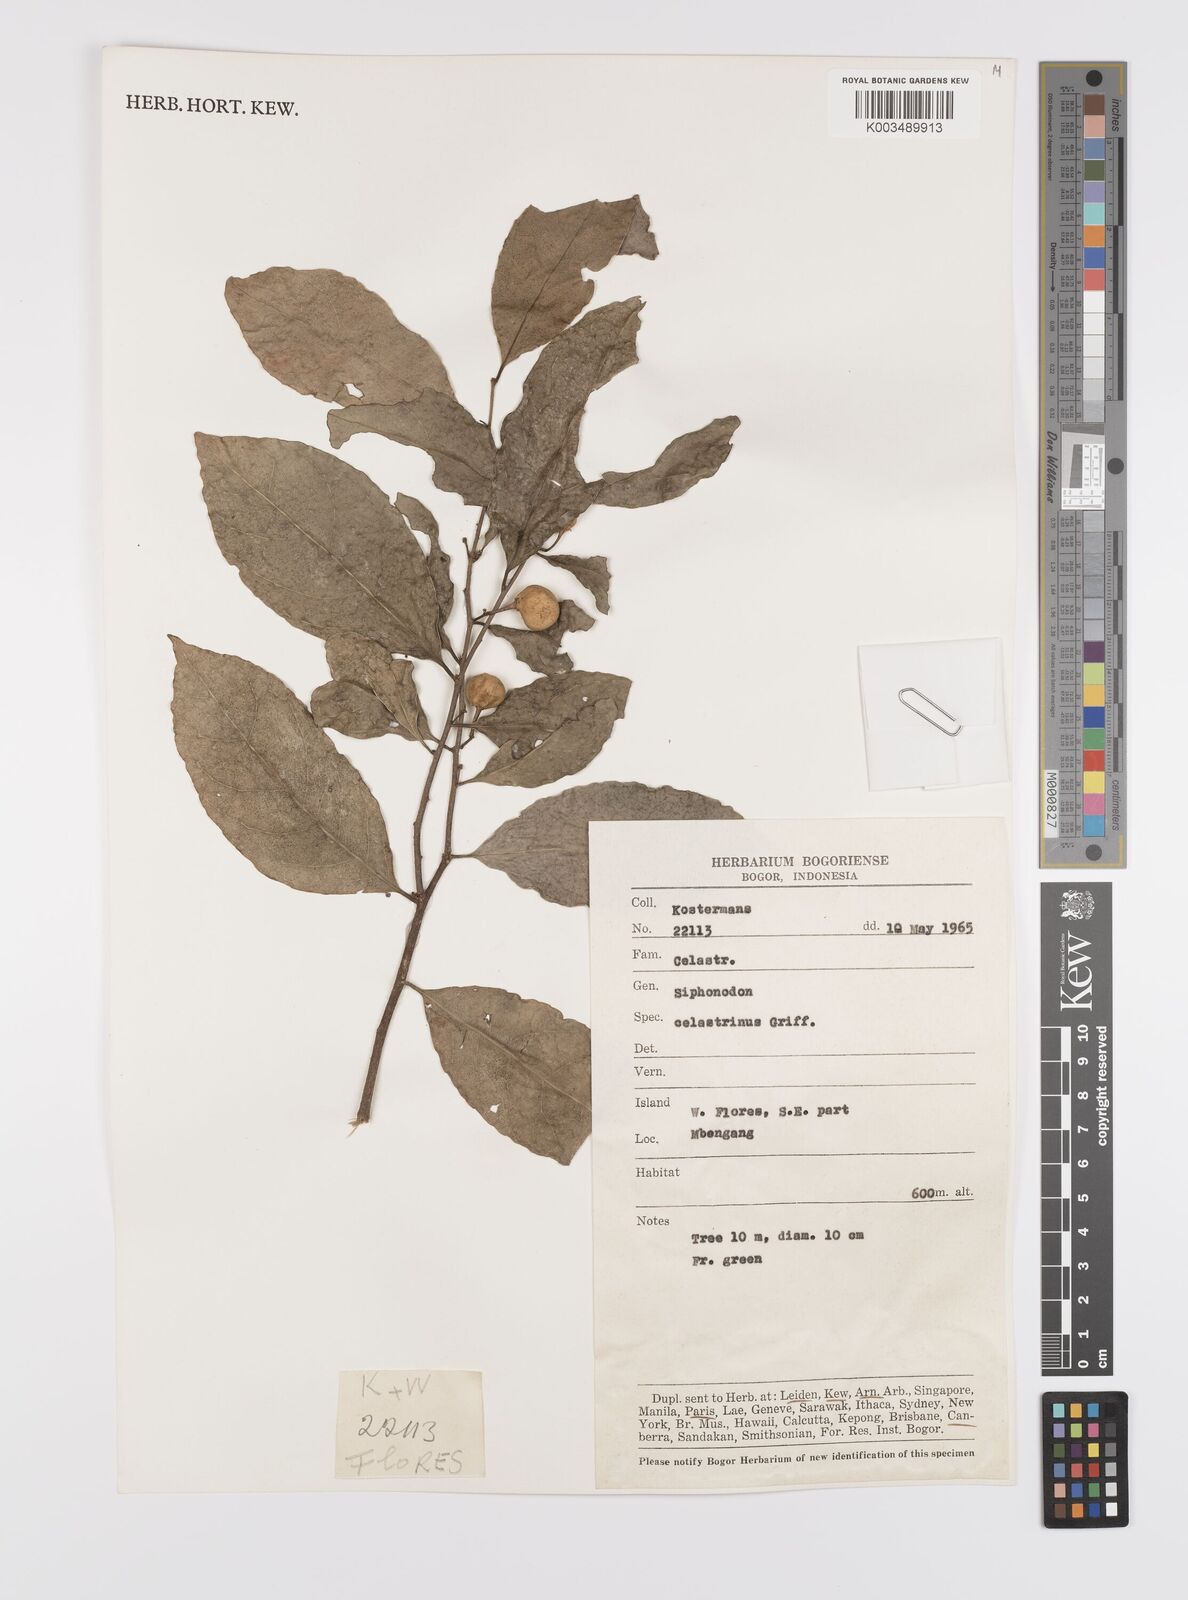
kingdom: Plantae
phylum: Tracheophyta
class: Magnoliopsida
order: Celastrales
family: Celastraceae
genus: Siphonodon
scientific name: Siphonodon celastrineus
